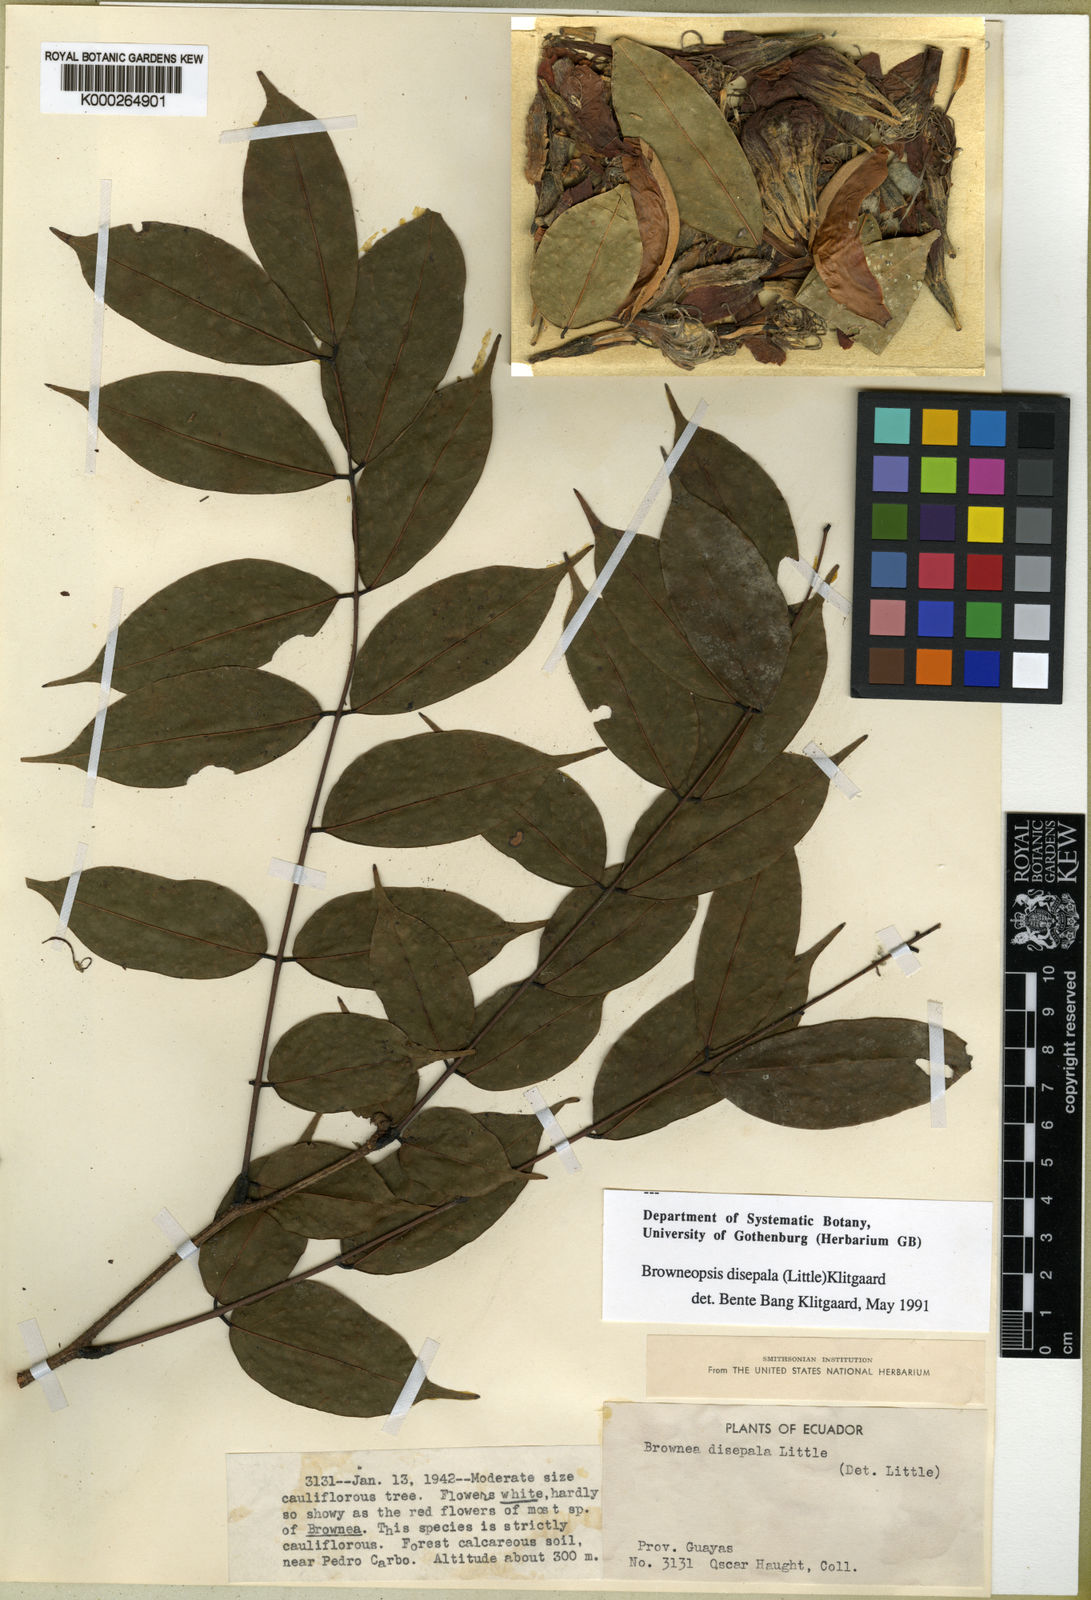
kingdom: Plantae
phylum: Tracheophyta
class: Magnoliopsida
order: Fabales
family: Fabaceae
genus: Browneopsis
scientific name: Browneopsis disepala
